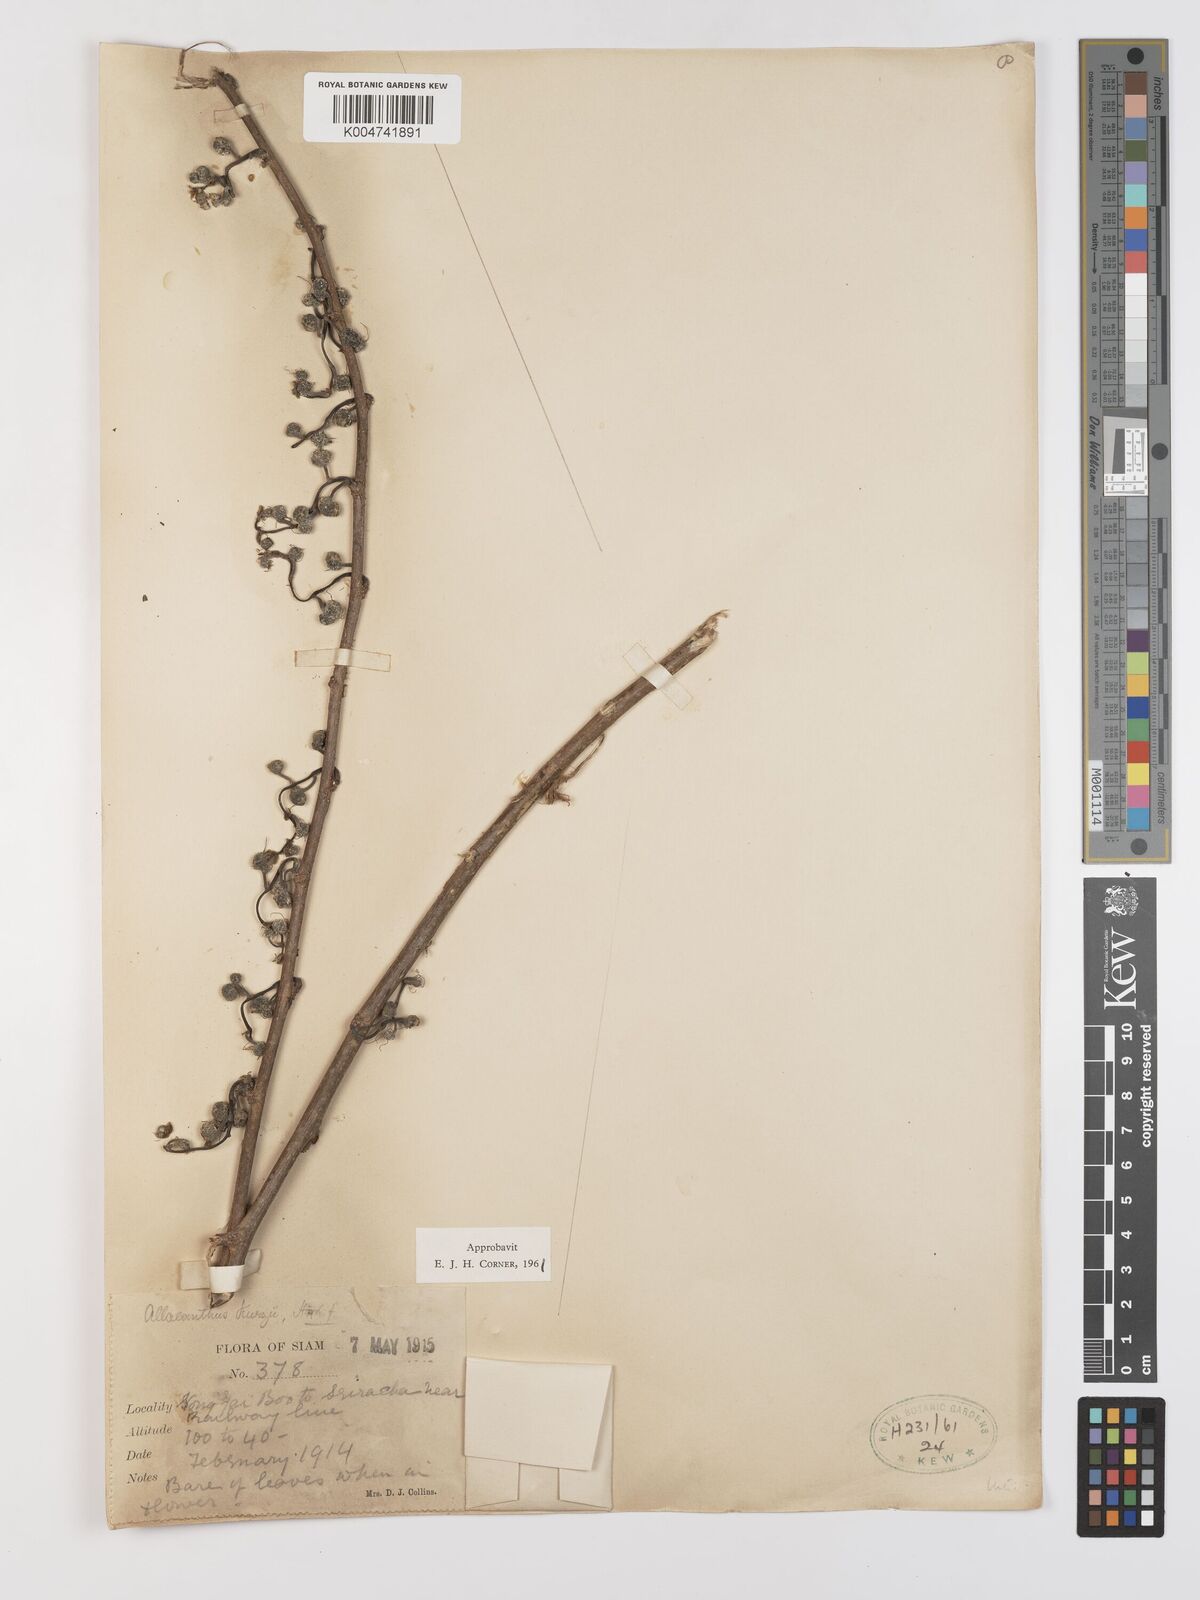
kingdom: Plantae
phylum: Tracheophyta
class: Magnoliopsida
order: Rosales
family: Moraceae
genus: Allaeanthus
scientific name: Allaeanthus kurzii
